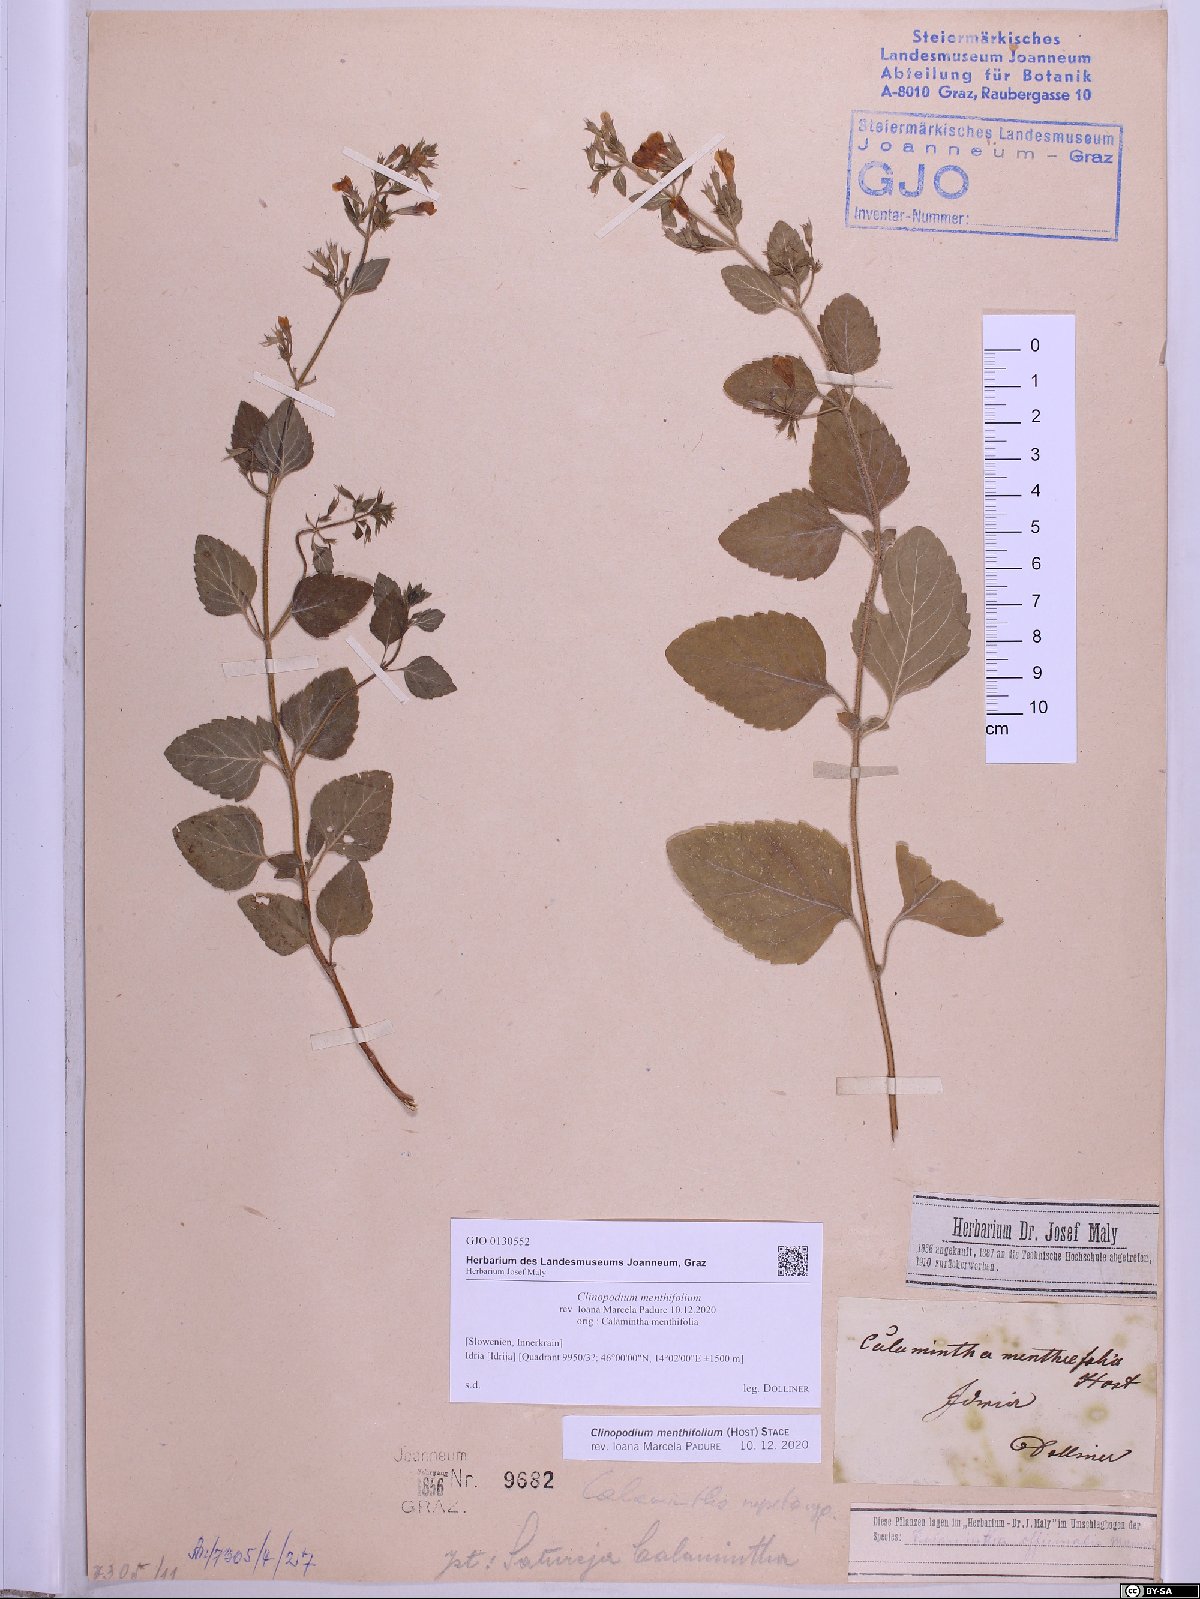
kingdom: Plantae
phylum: Tracheophyta
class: Magnoliopsida
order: Lamiales
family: Lamiaceae
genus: Clinopodium
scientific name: Clinopodium menthifolium
